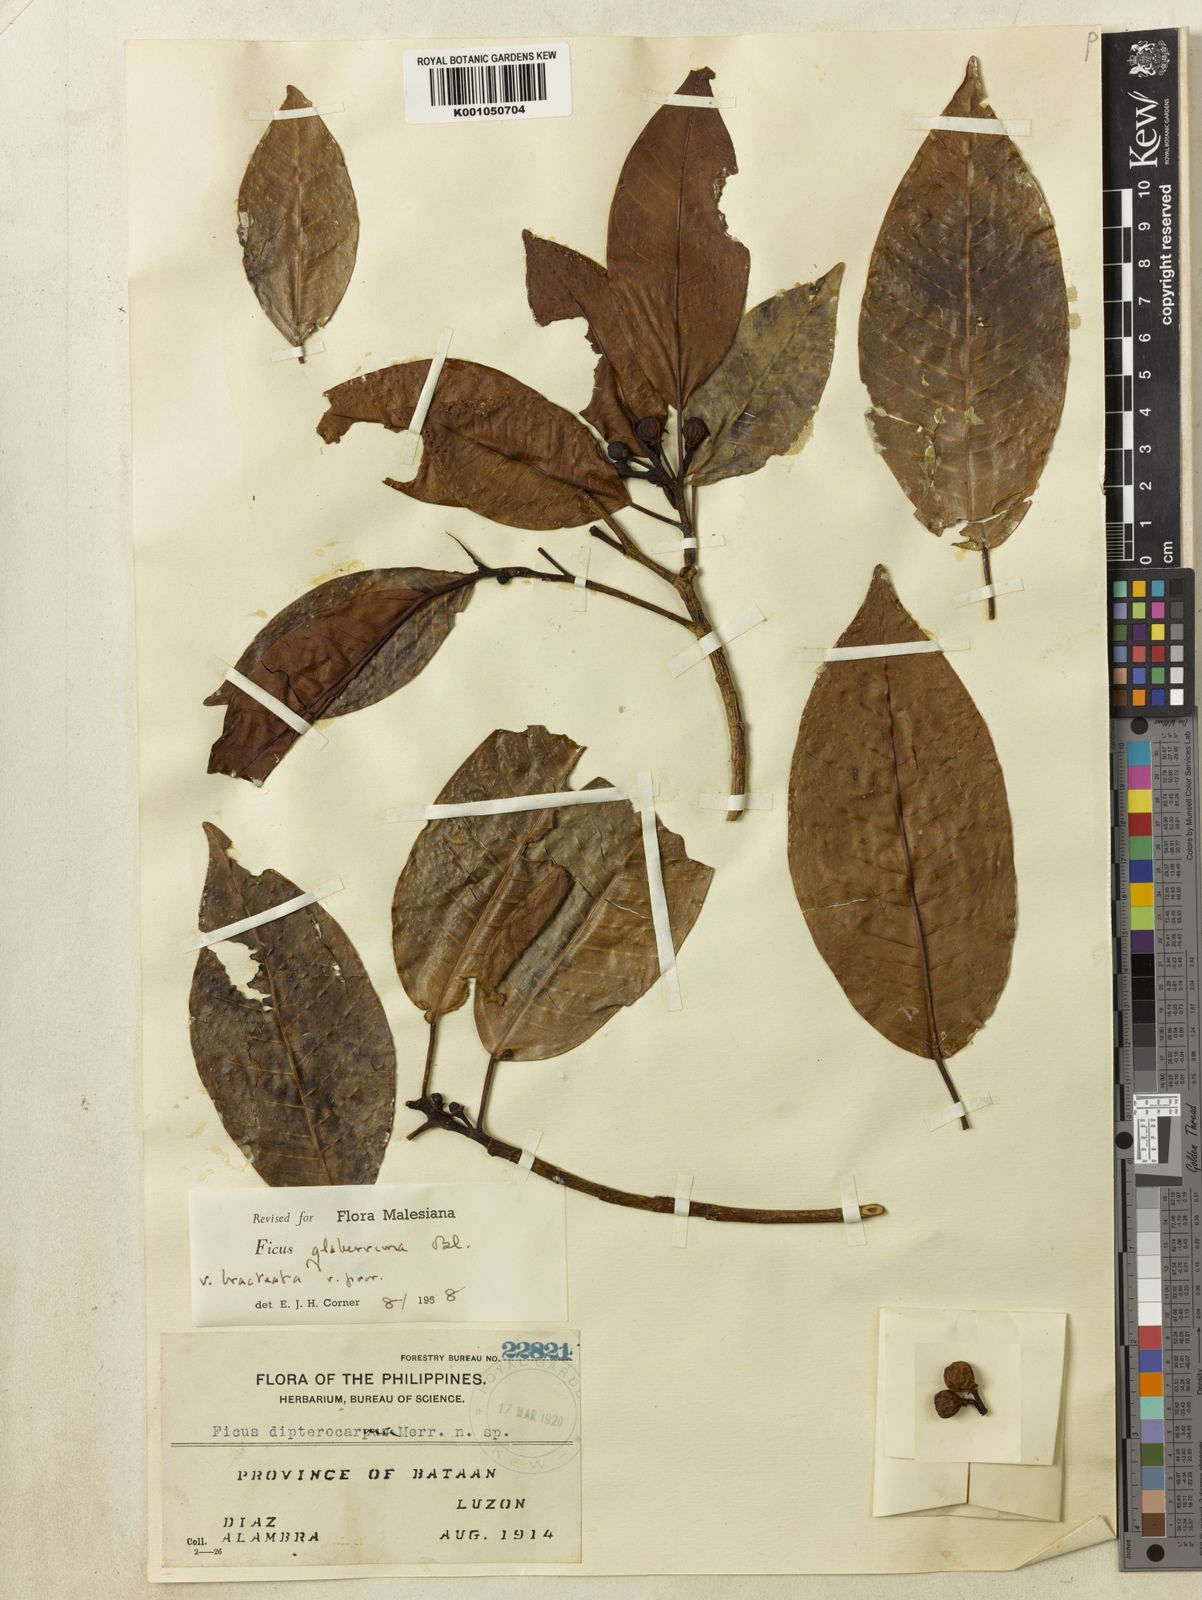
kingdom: Plantae
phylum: Tracheophyta
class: Magnoliopsida
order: Rosales
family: Moraceae
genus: Ficus
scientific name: Ficus glaberrima
